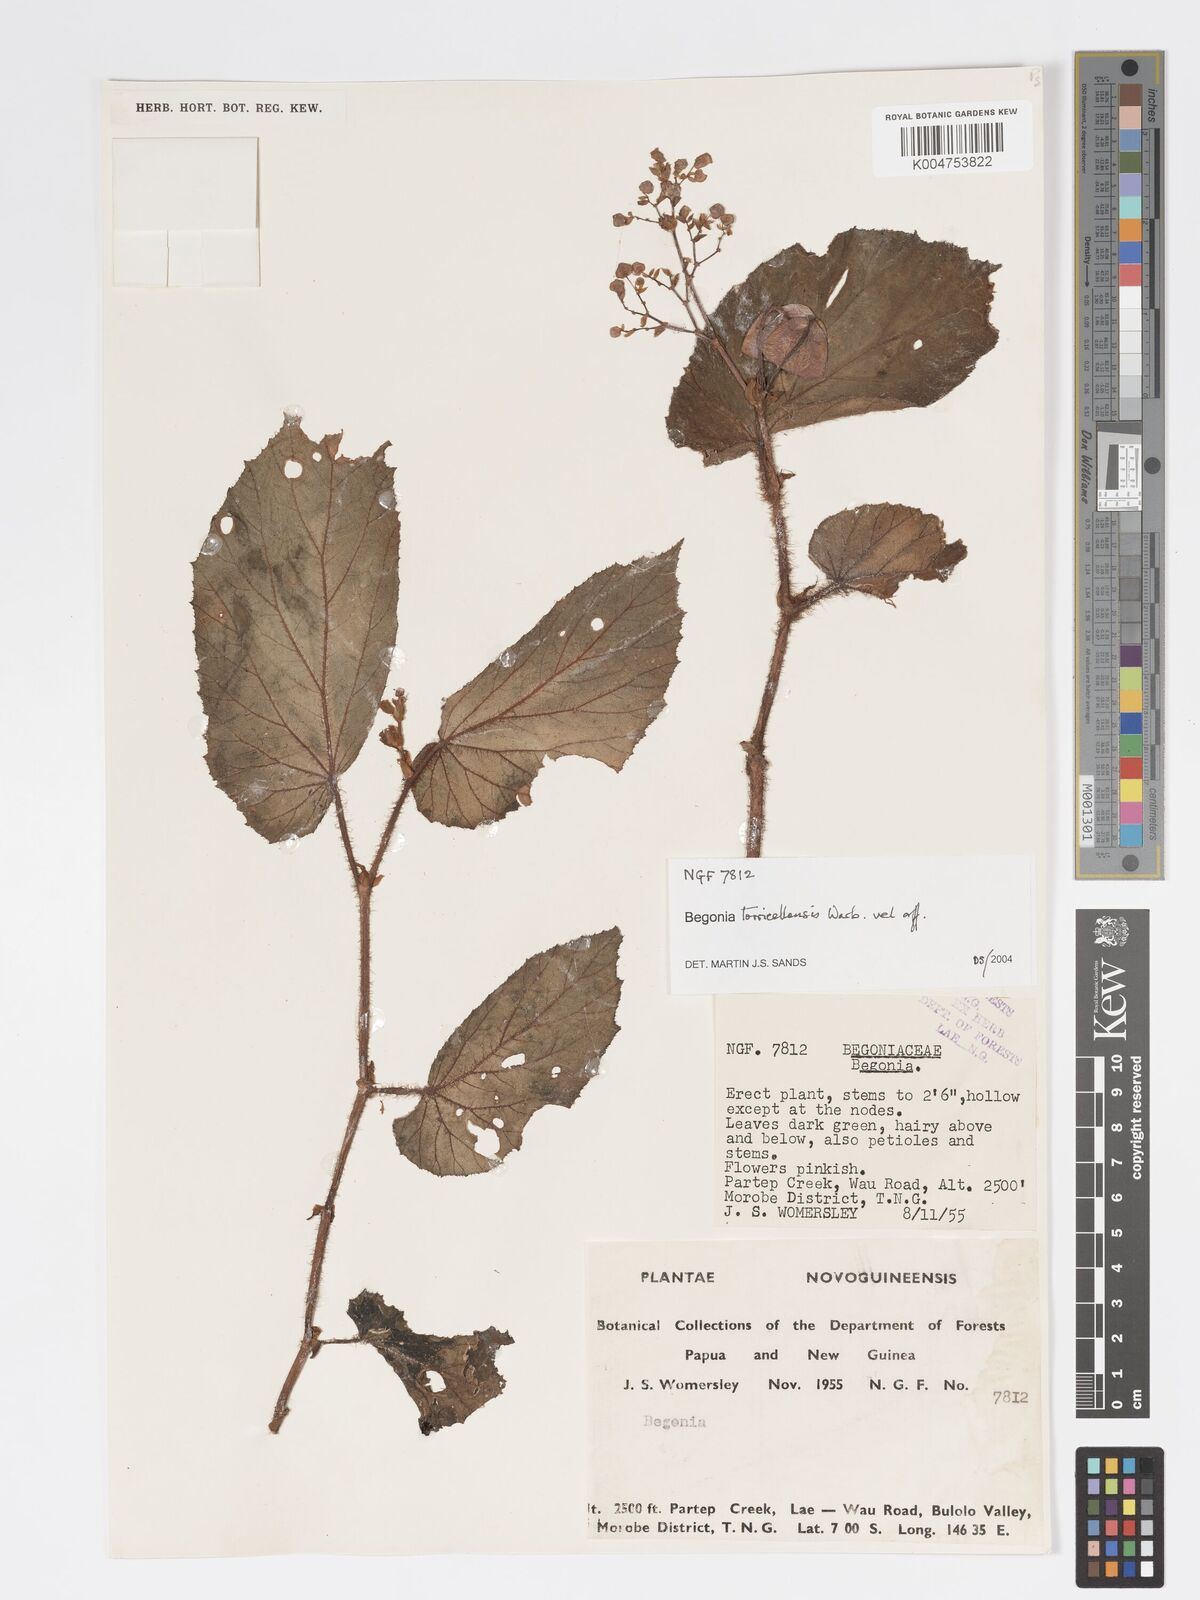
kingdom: Plantae
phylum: Tracheophyta
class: Magnoliopsida
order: Cucurbitales
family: Begoniaceae
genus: Begonia
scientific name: Begonia torricellensis
